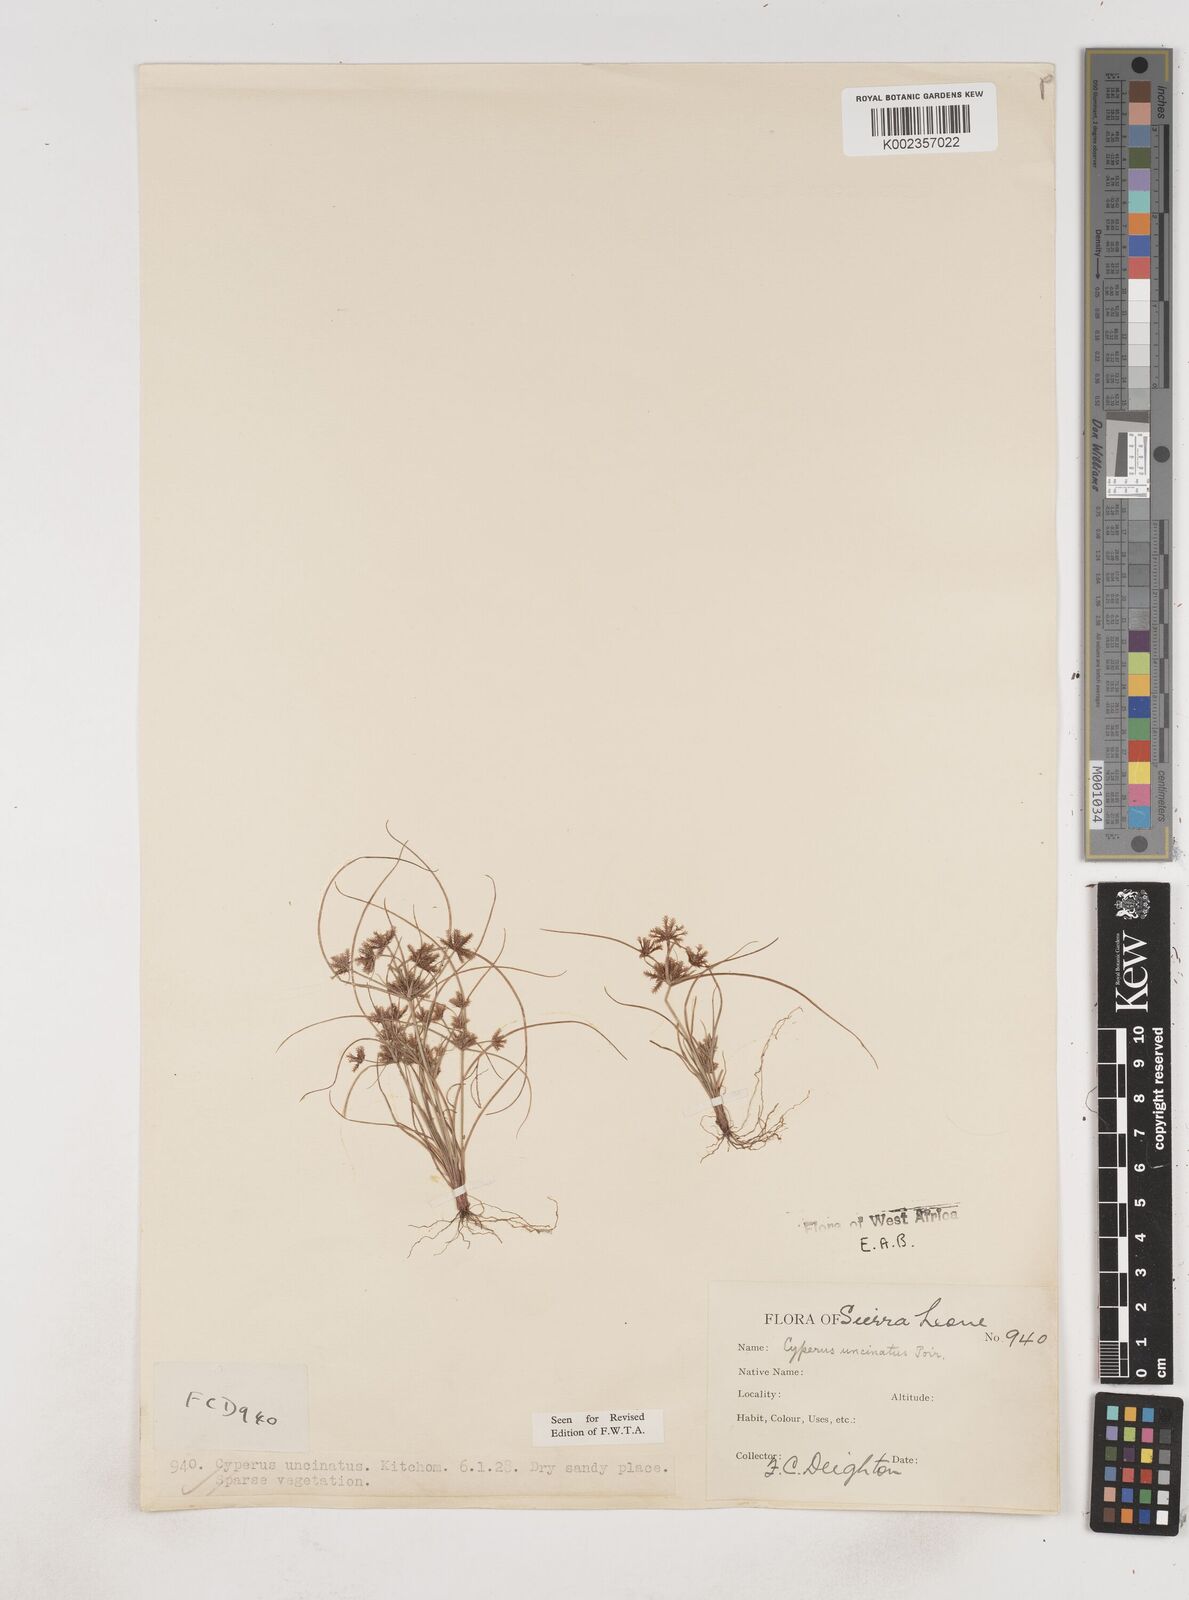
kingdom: Plantae
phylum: Tracheophyta
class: Liliopsida
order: Poales
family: Cyperaceae
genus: Cyperus
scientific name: Cyperus
